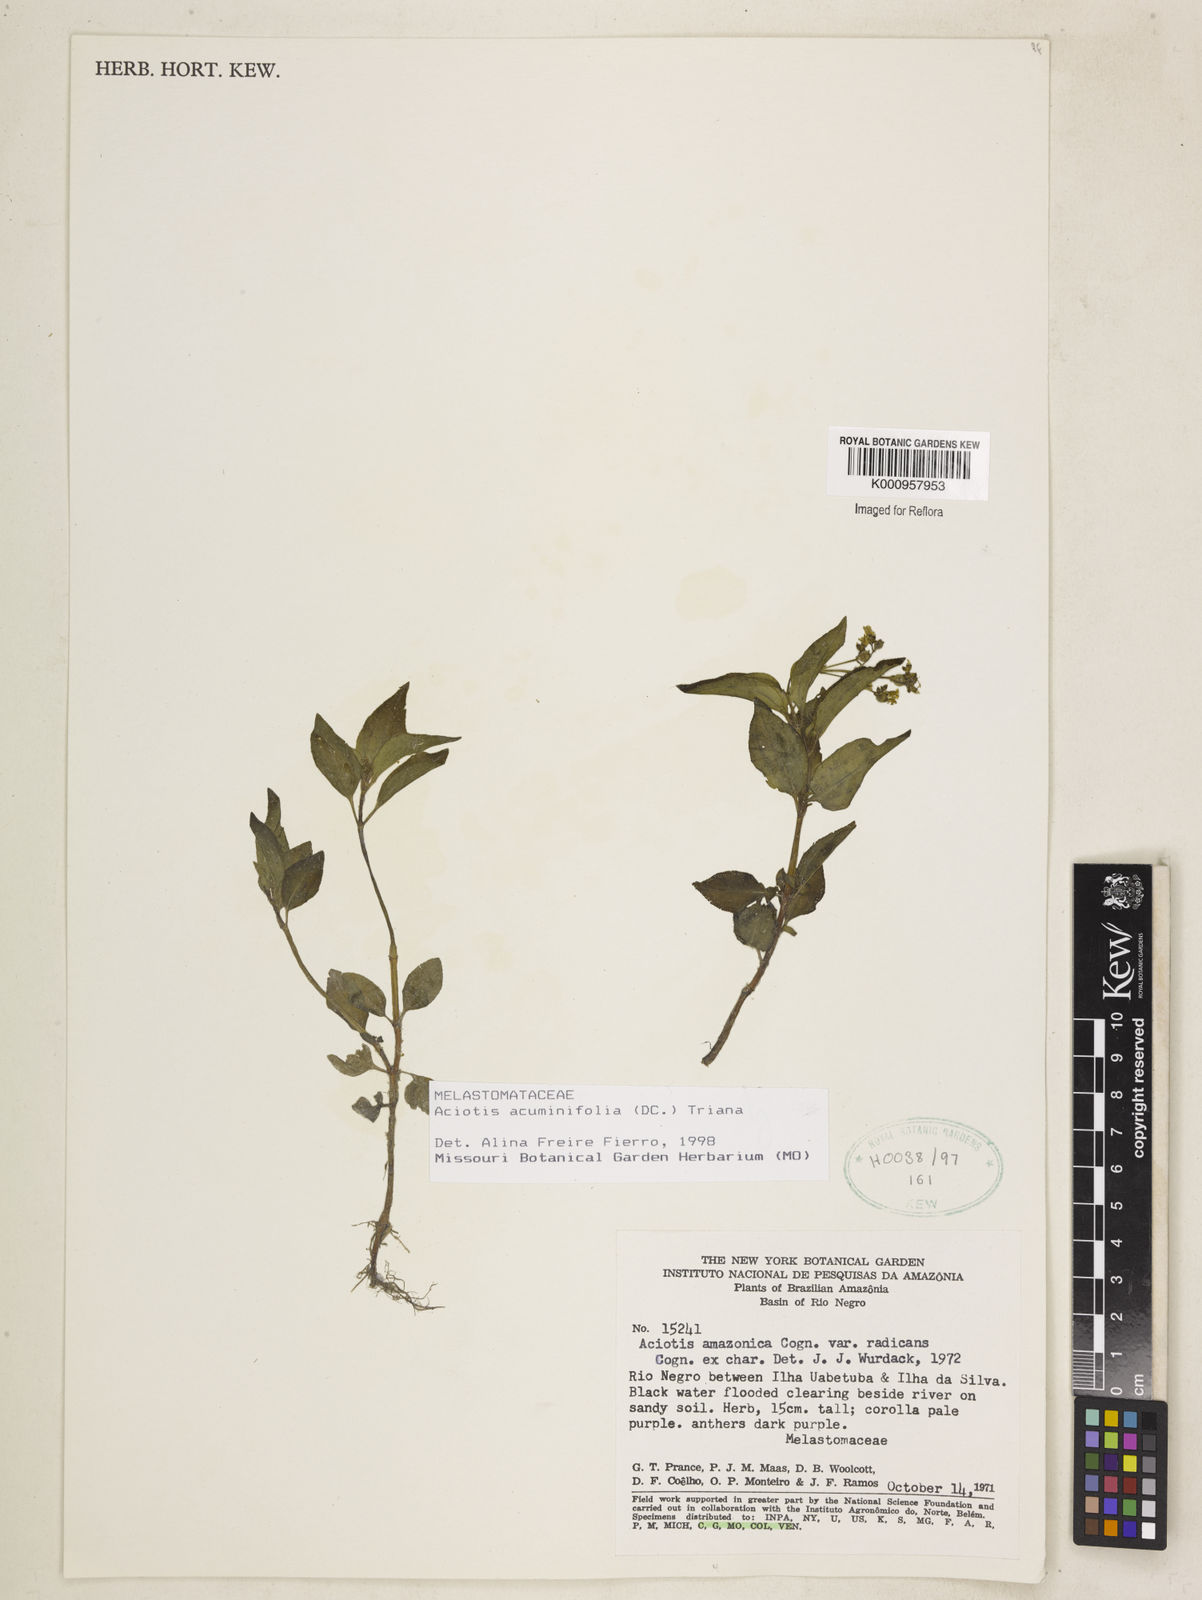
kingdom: Plantae
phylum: Tracheophyta
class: Magnoliopsida
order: Myrtales
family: Melastomataceae
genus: Aciotis
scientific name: Aciotis acuminifolia
